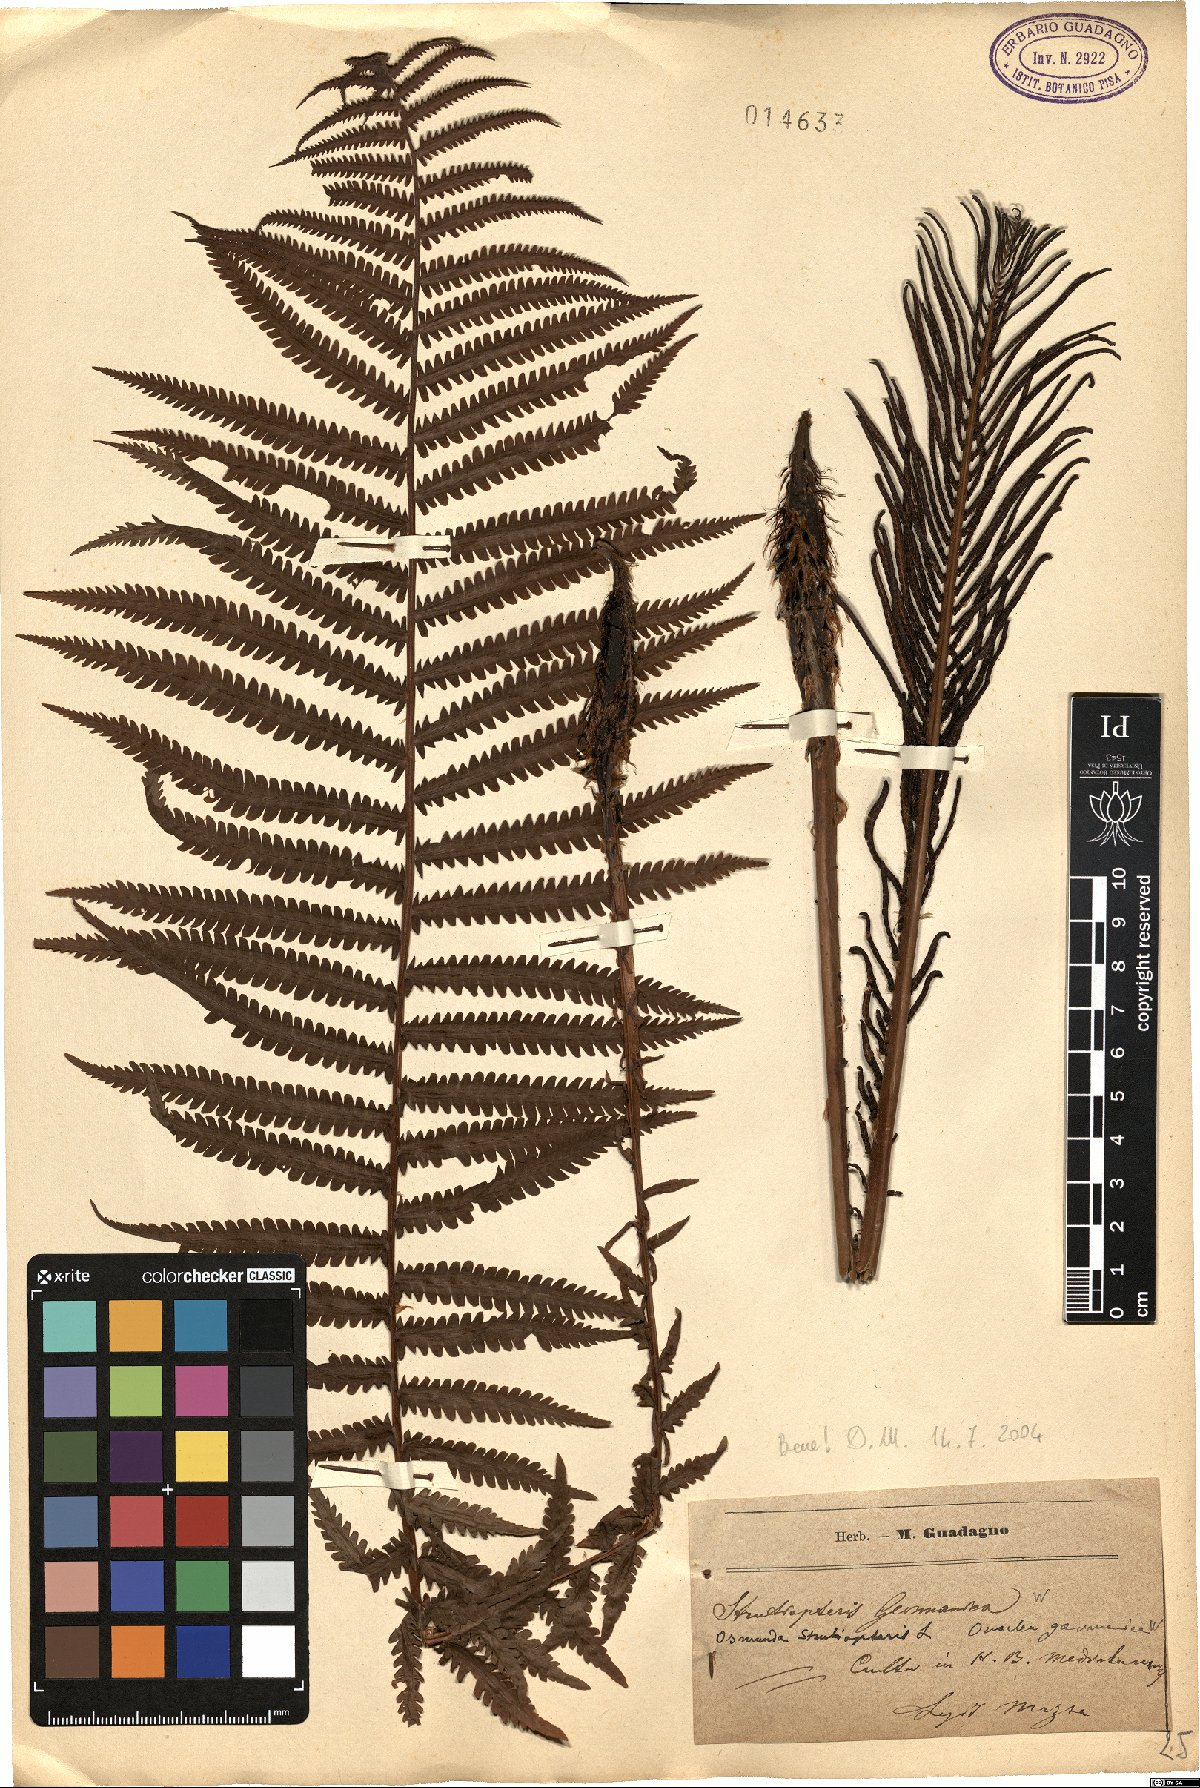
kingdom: Plantae
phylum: Tracheophyta
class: Polypodiopsida
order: Polypodiales
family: Onocleaceae
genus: Matteuccia
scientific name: Matteuccia struthiopteris
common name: Ostrich fern
